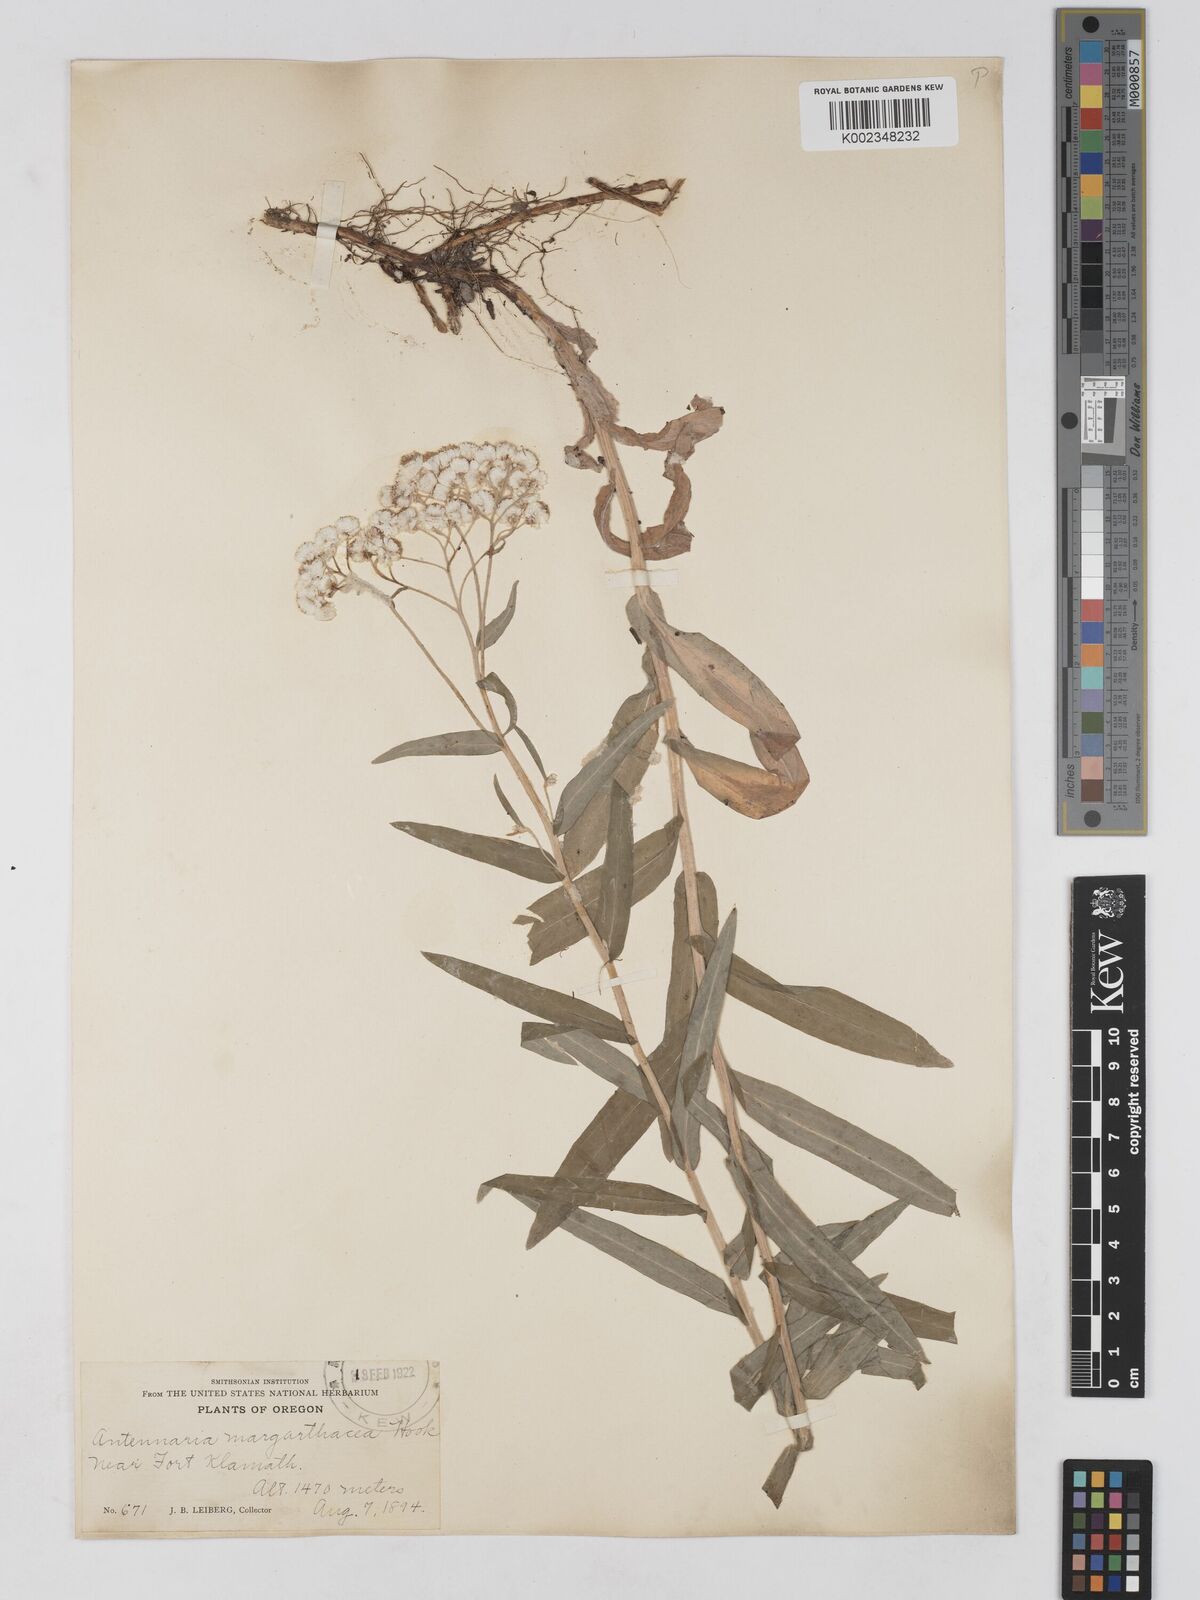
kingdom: Plantae
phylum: Tracheophyta
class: Magnoliopsida
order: Asterales
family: Asteraceae
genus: Anaphalis
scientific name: Anaphalis margaritacea
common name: Pearly everlasting
